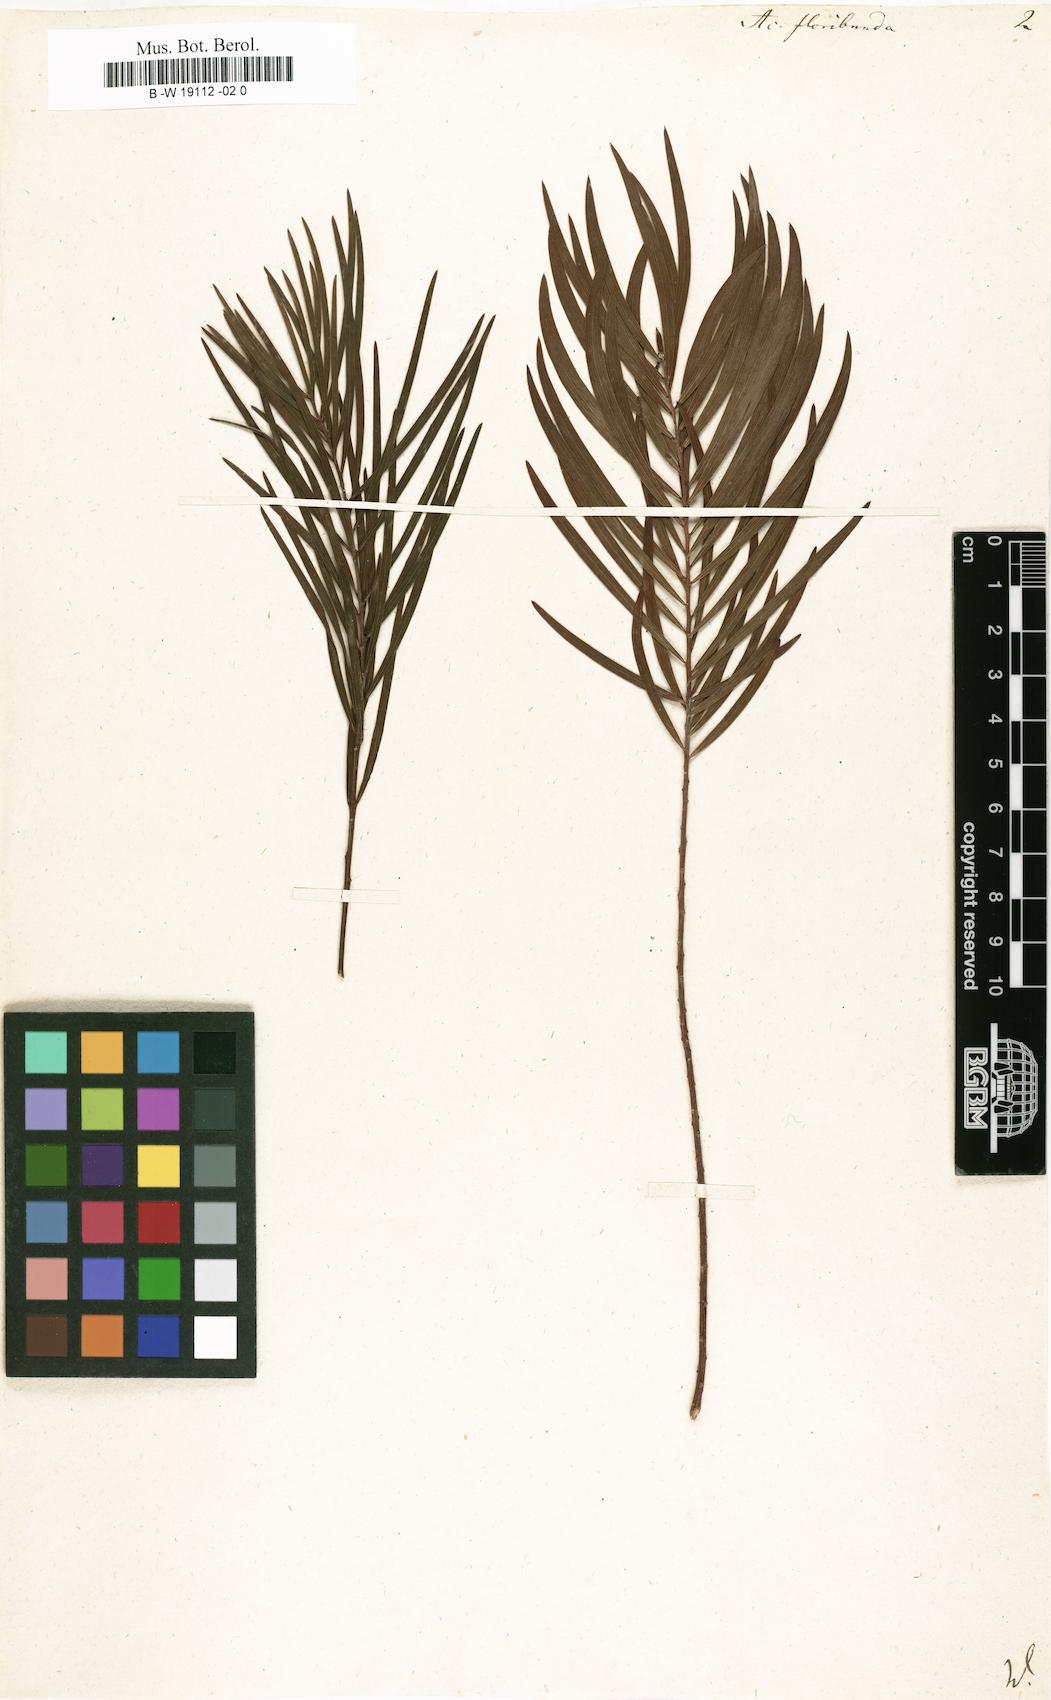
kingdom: Plantae
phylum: Tracheophyta
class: Magnoliopsida
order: Fabales
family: Fabaceae
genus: Acacia
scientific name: Acacia floribunda
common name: Gossamer wattle
